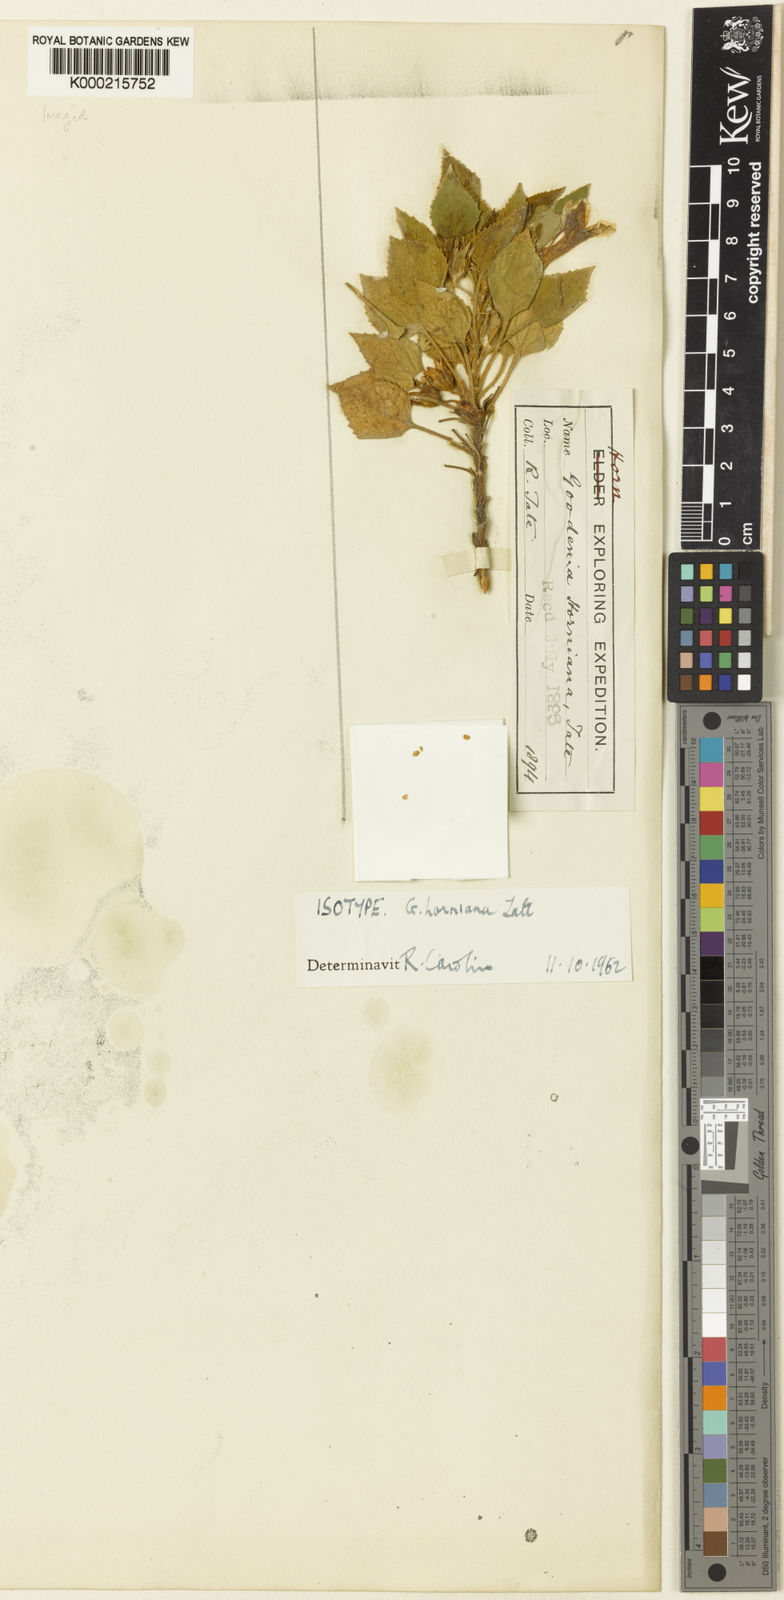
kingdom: Plantae
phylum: Tracheophyta
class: Magnoliopsida
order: Asterales
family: Goodeniaceae
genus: Goodenia
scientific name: Goodenia grandiflora
